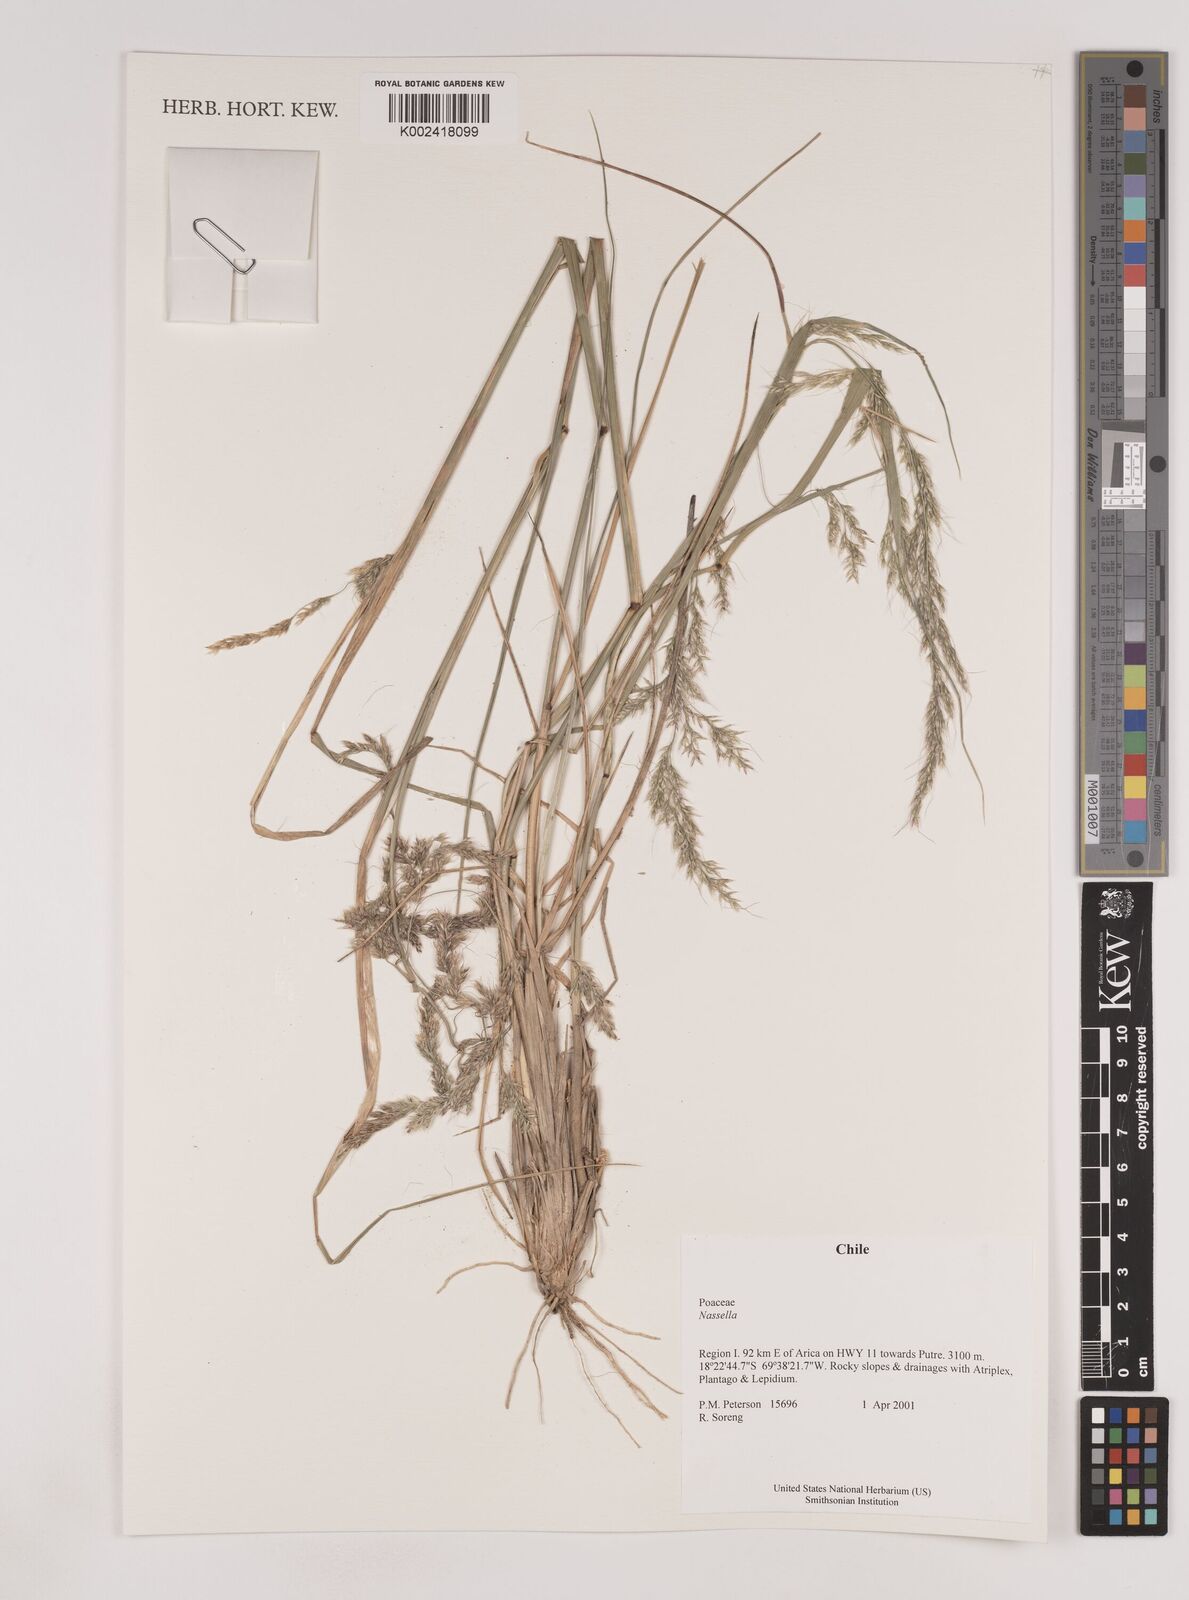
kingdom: Plantae
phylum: Tracheophyta
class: Liliopsida
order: Poales
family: Poaceae
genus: Nassella
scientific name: Nassella
